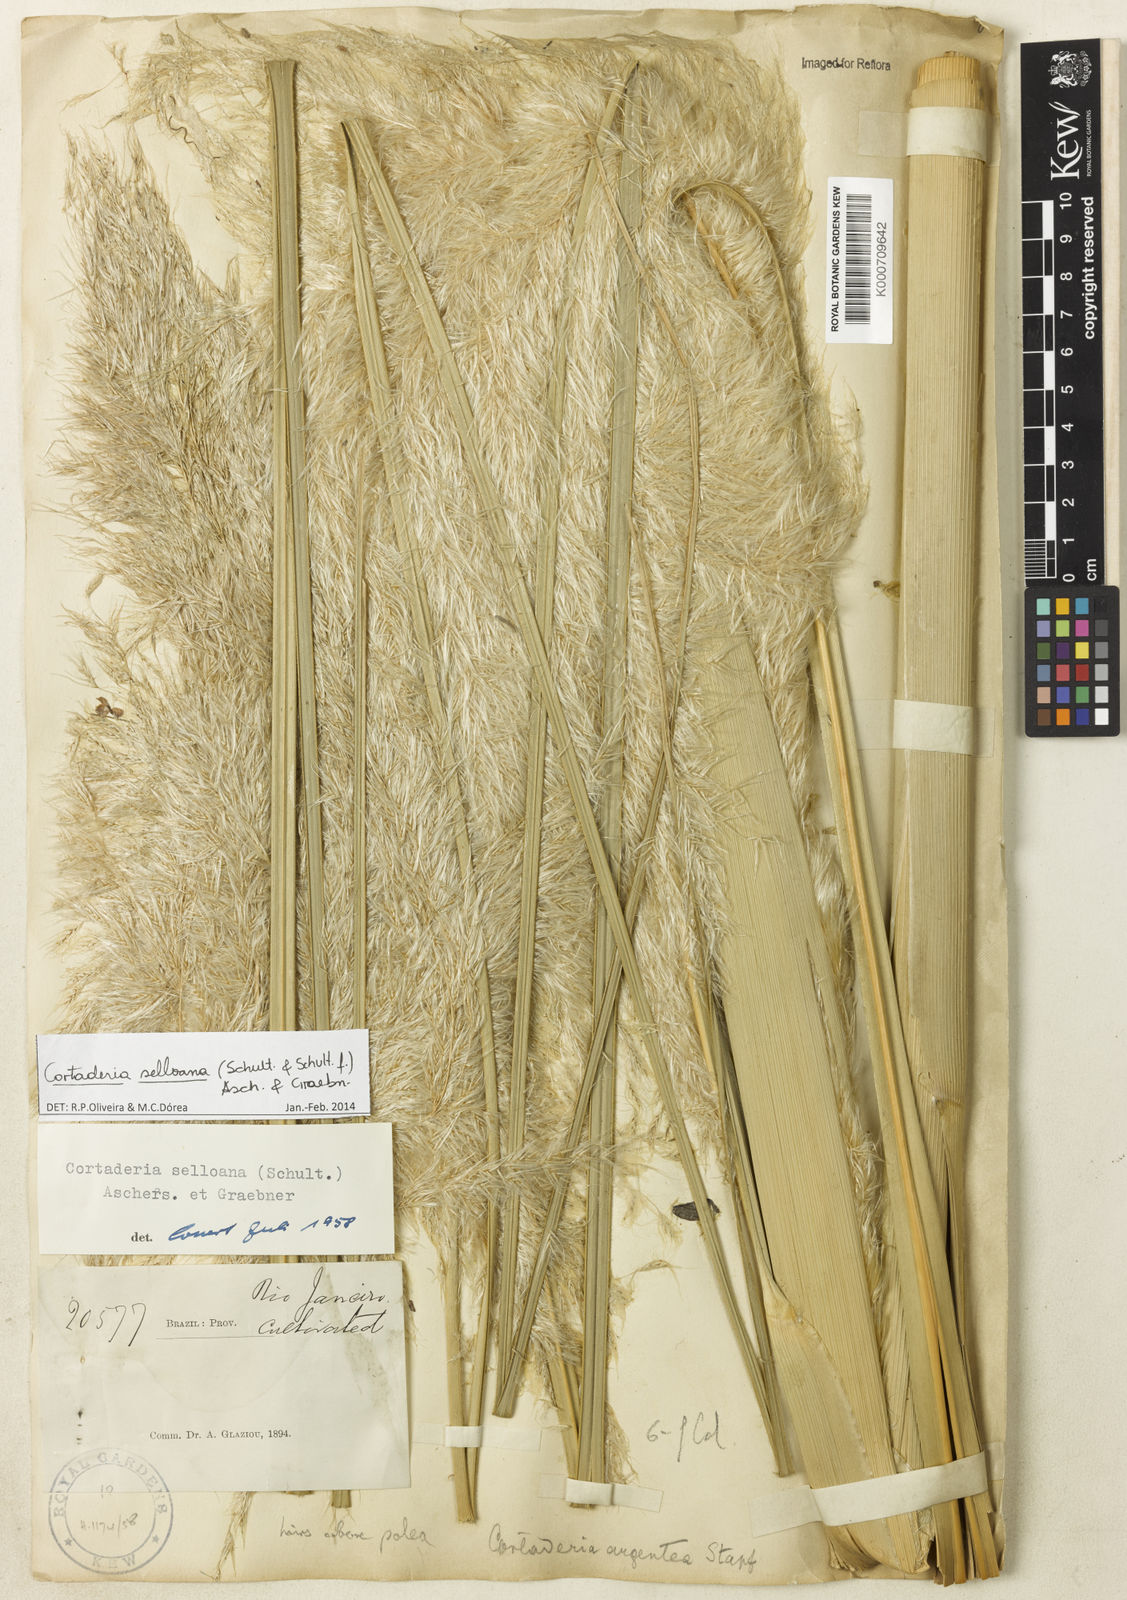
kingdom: Plantae
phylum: Tracheophyta
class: Liliopsida
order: Poales
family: Poaceae
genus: Cortaderia
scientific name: Cortaderia selloana
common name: Uruguayan pampas grass
